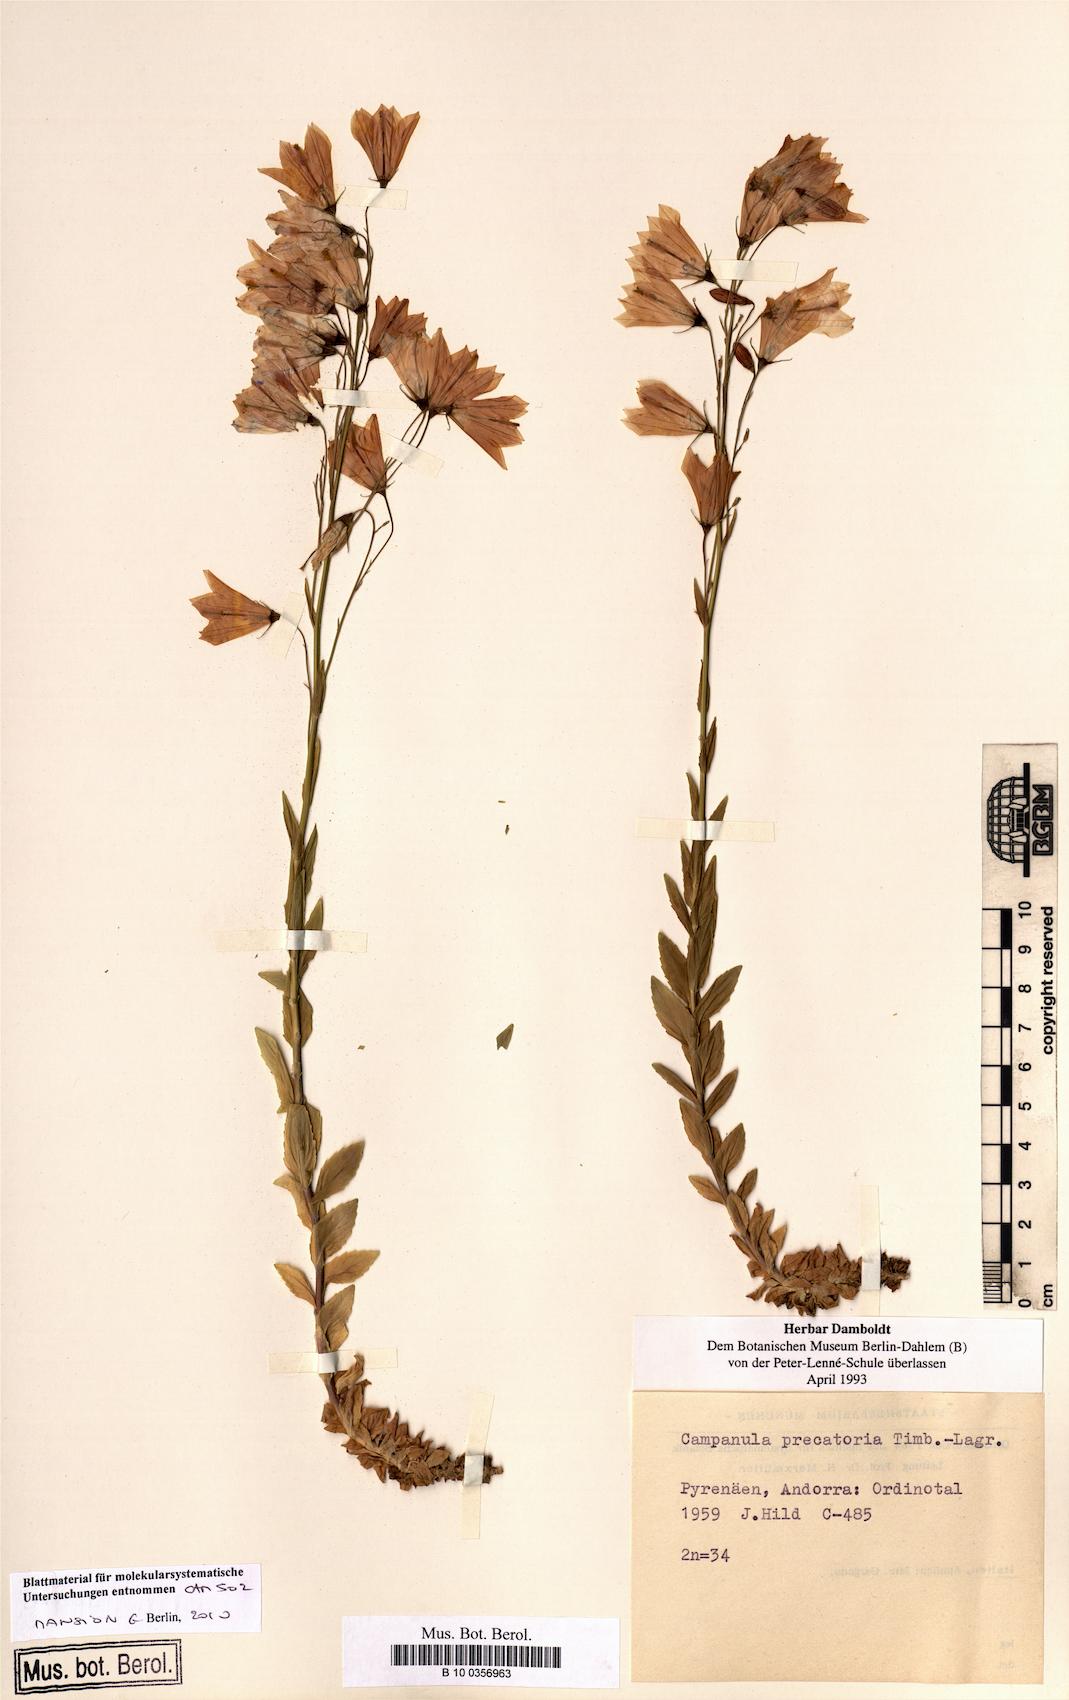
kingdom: Plantae
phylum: Tracheophyta
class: Magnoliopsida
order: Asterales
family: Campanulaceae
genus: Campanula
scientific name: Campanula precatoria
